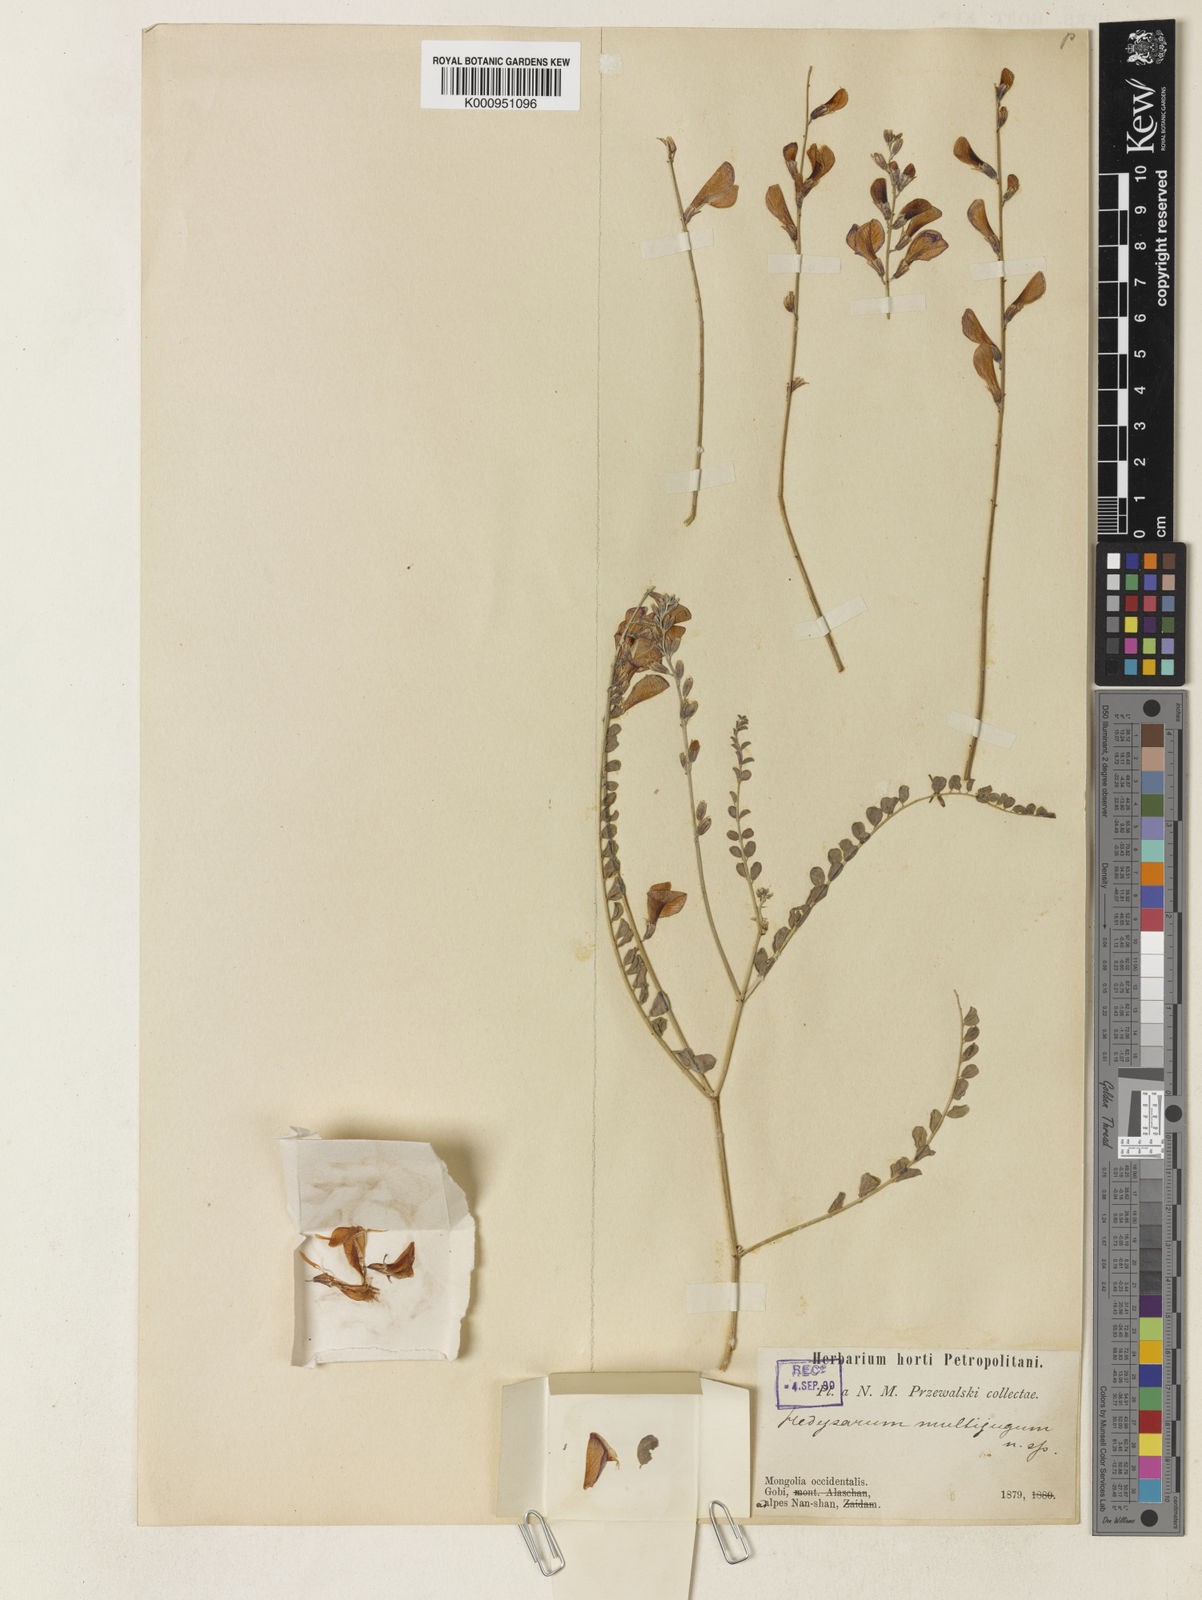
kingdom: Plantae
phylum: Tracheophyta
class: Magnoliopsida
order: Fabales
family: Fabaceae
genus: Corethrodendron
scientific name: Corethrodendron multijugum
